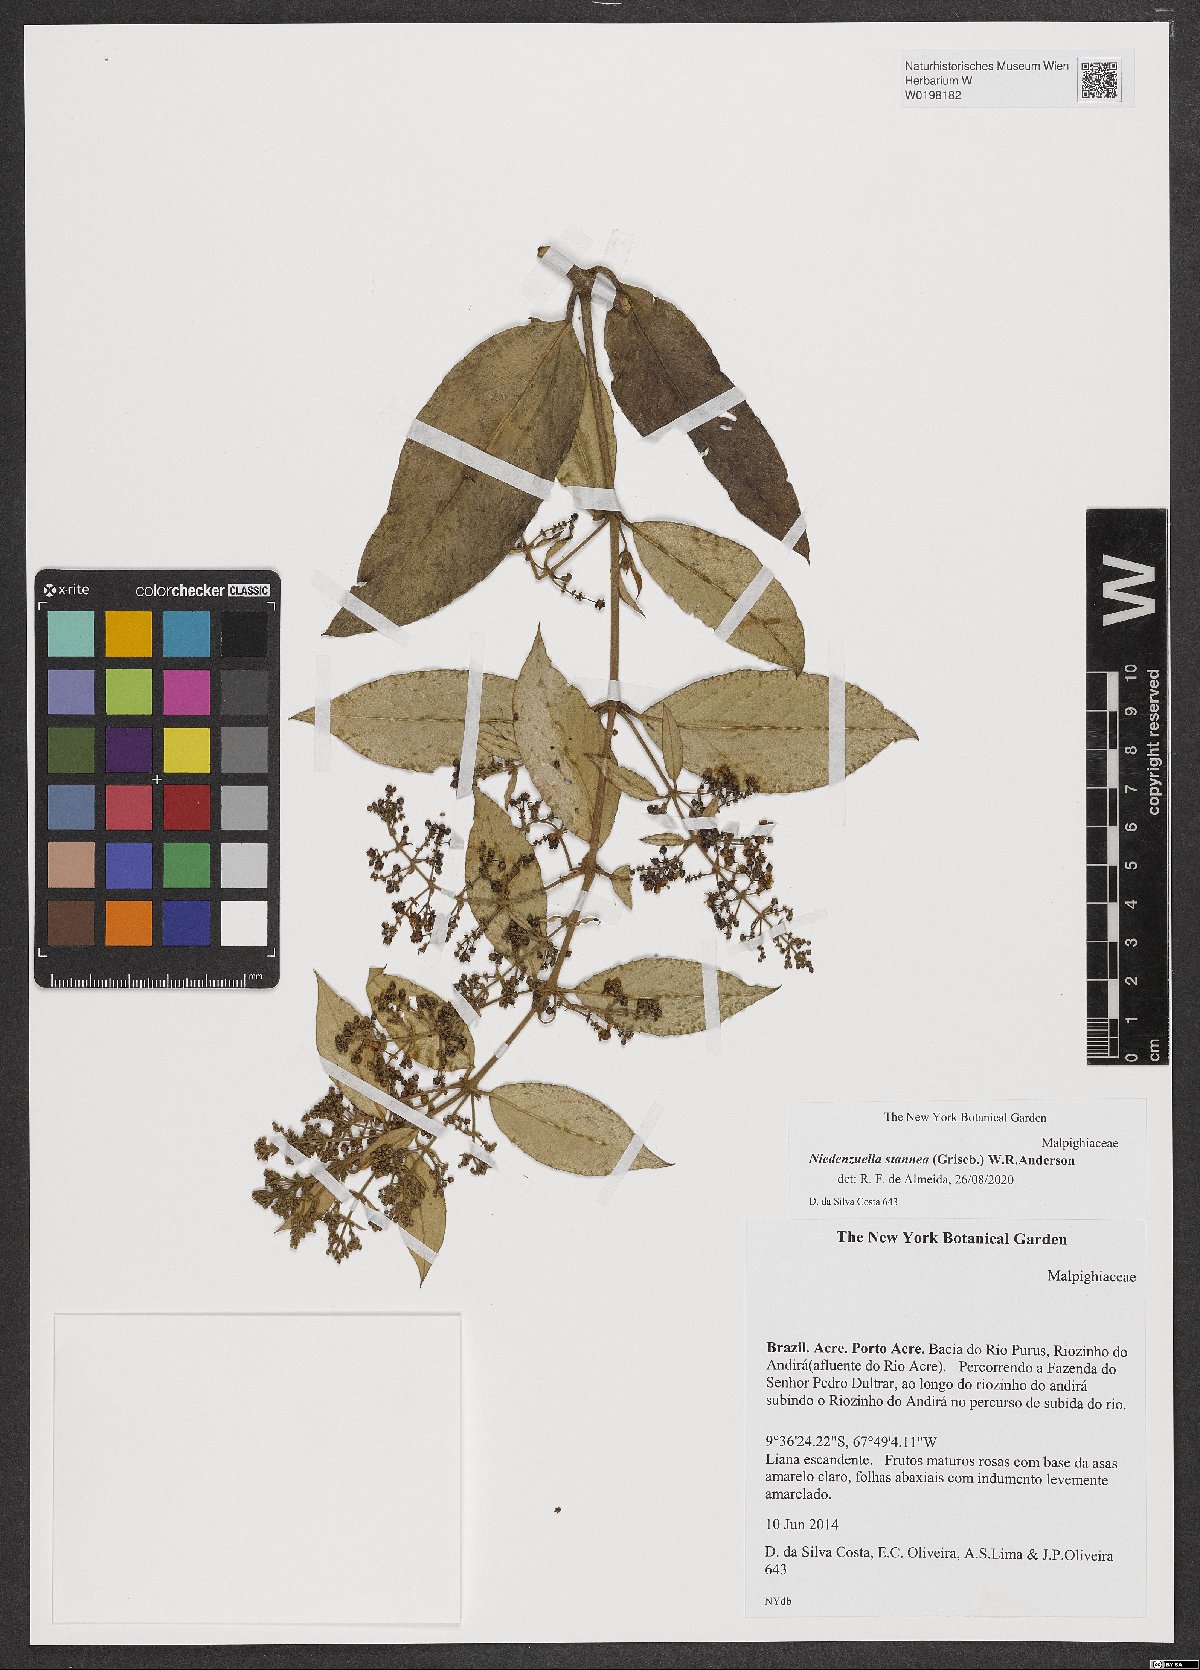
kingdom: Plantae
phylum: Tracheophyta
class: Magnoliopsida
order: Malpighiales
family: Malpighiaceae
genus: Niedenzuella
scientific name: Niedenzuella stannea
